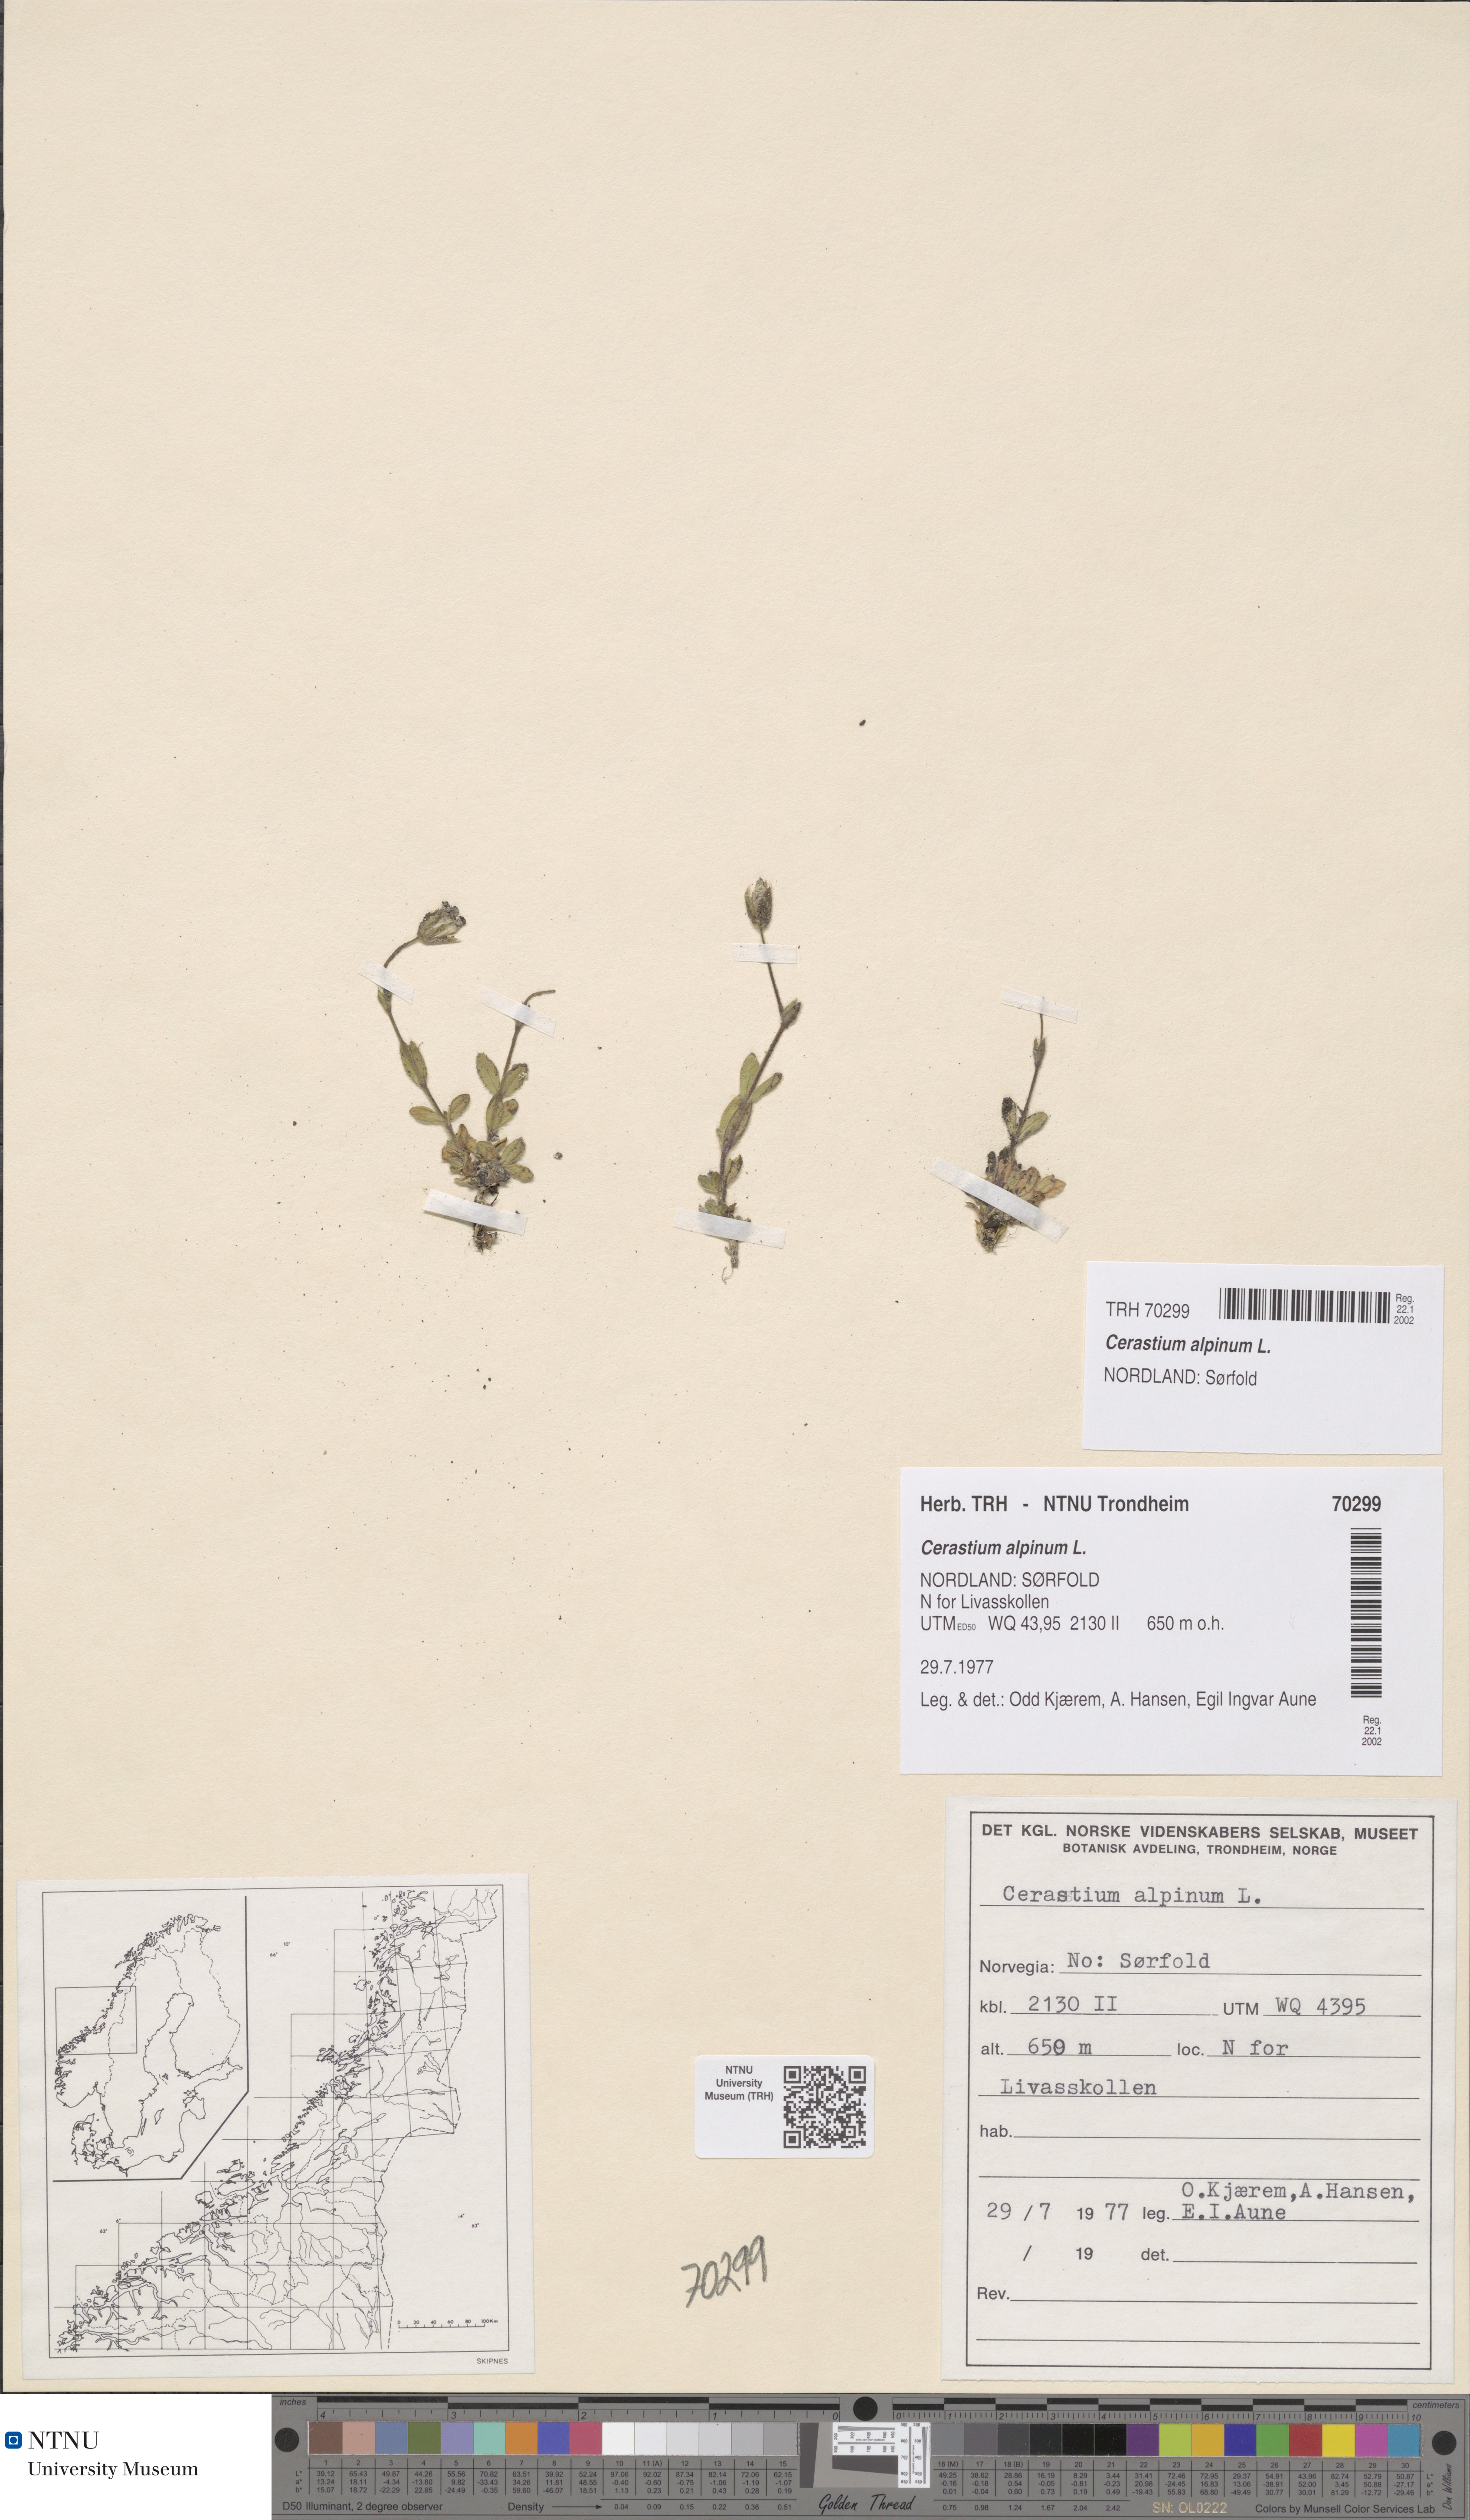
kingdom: Plantae
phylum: Tracheophyta
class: Magnoliopsida
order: Caryophyllales
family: Caryophyllaceae
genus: Cerastium
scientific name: Cerastium alpinum
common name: Alpine mouse-ear
